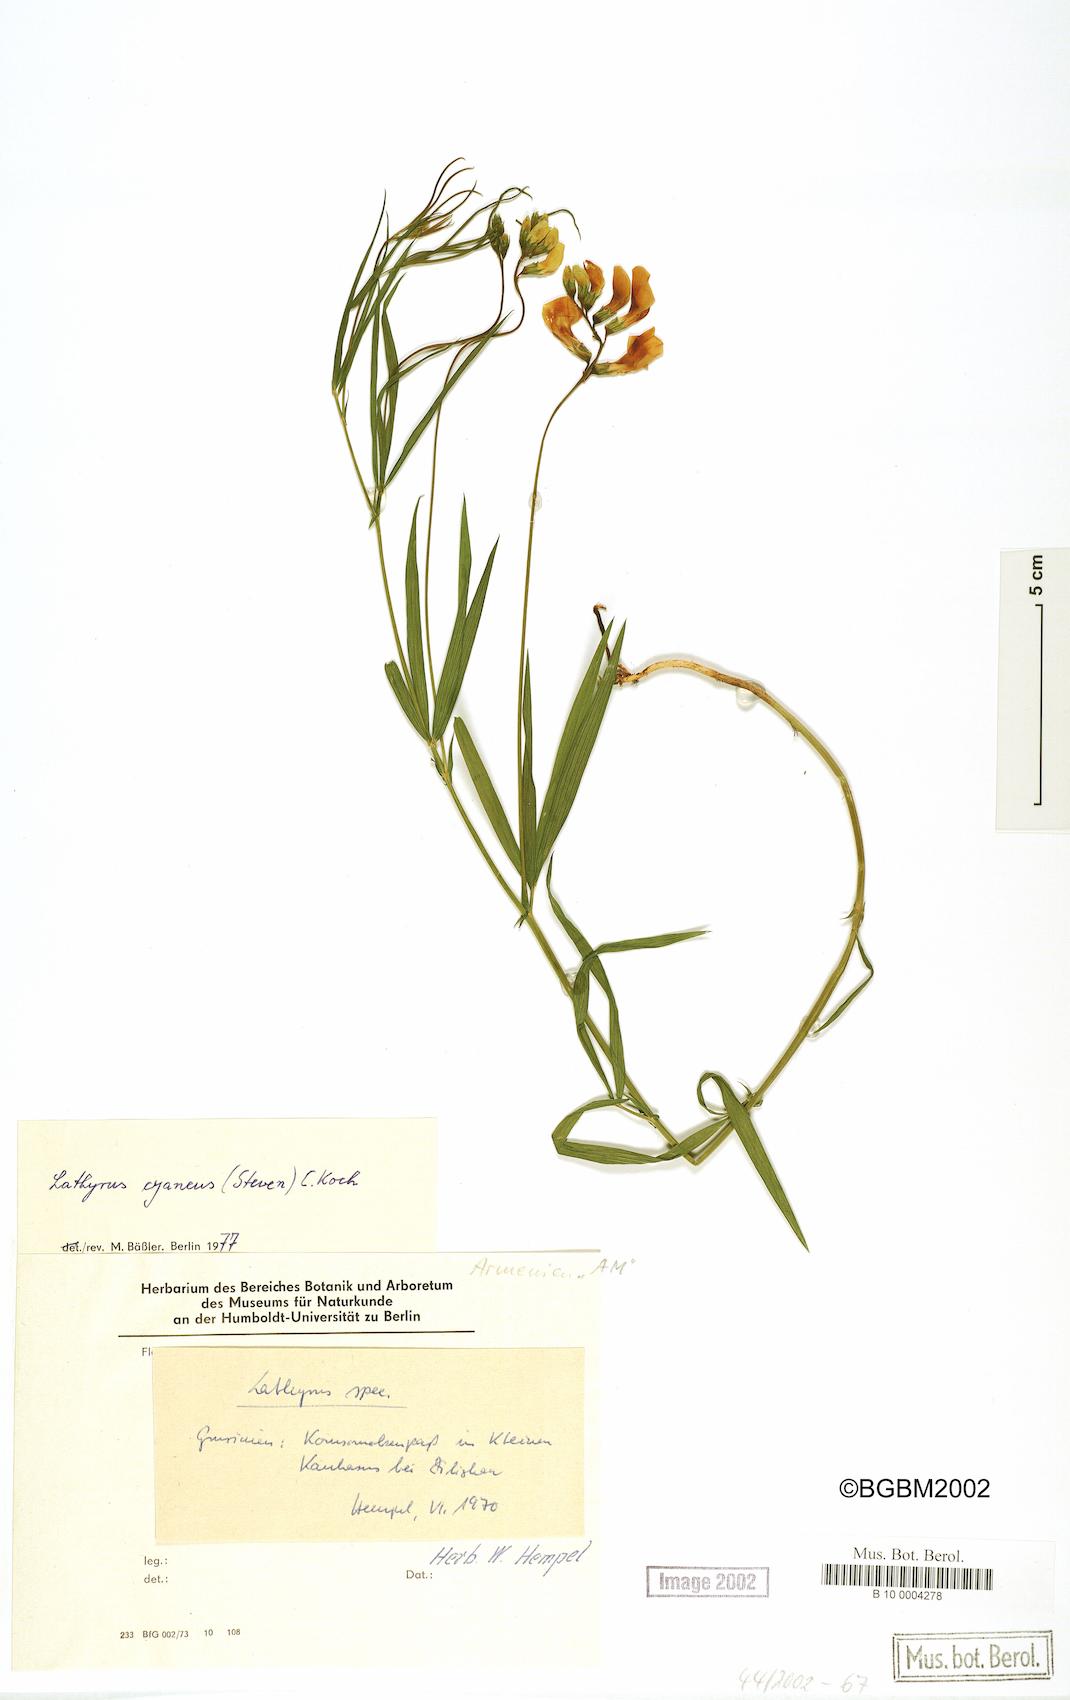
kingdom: Plantae
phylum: Tracheophyta
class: Magnoliopsida
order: Fabales
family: Fabaceae
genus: Lathyrus
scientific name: Lathyrus cyaneus
